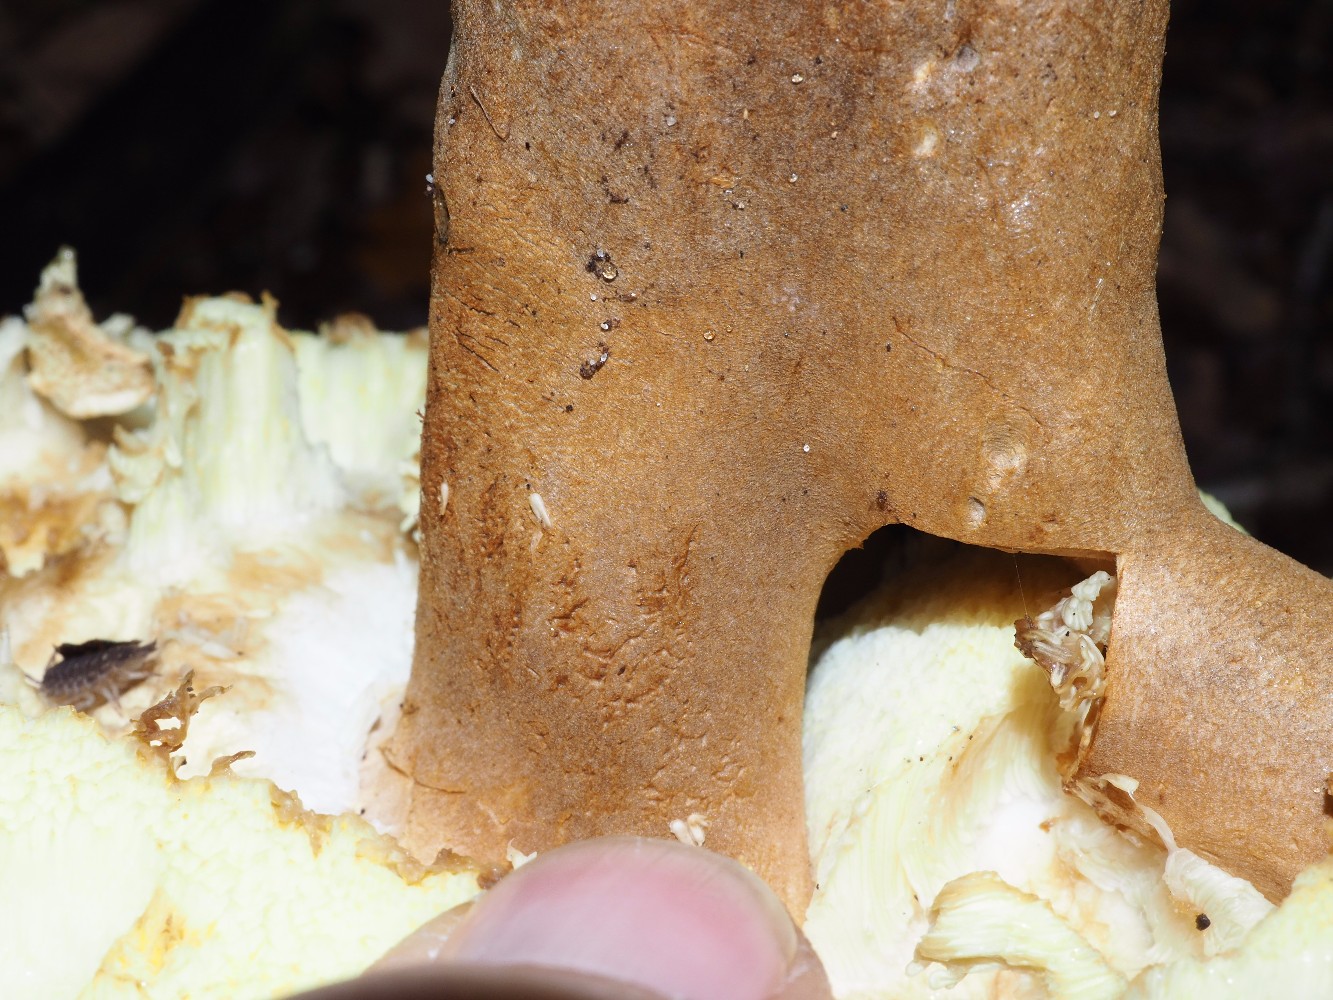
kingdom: Fungi
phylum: Basidiomycota
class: Agaricomycetes
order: Boletales
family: Gyroporaceae
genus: Gyroporus
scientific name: Gyroporus castaneus
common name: kastanie-kammerrørhat
